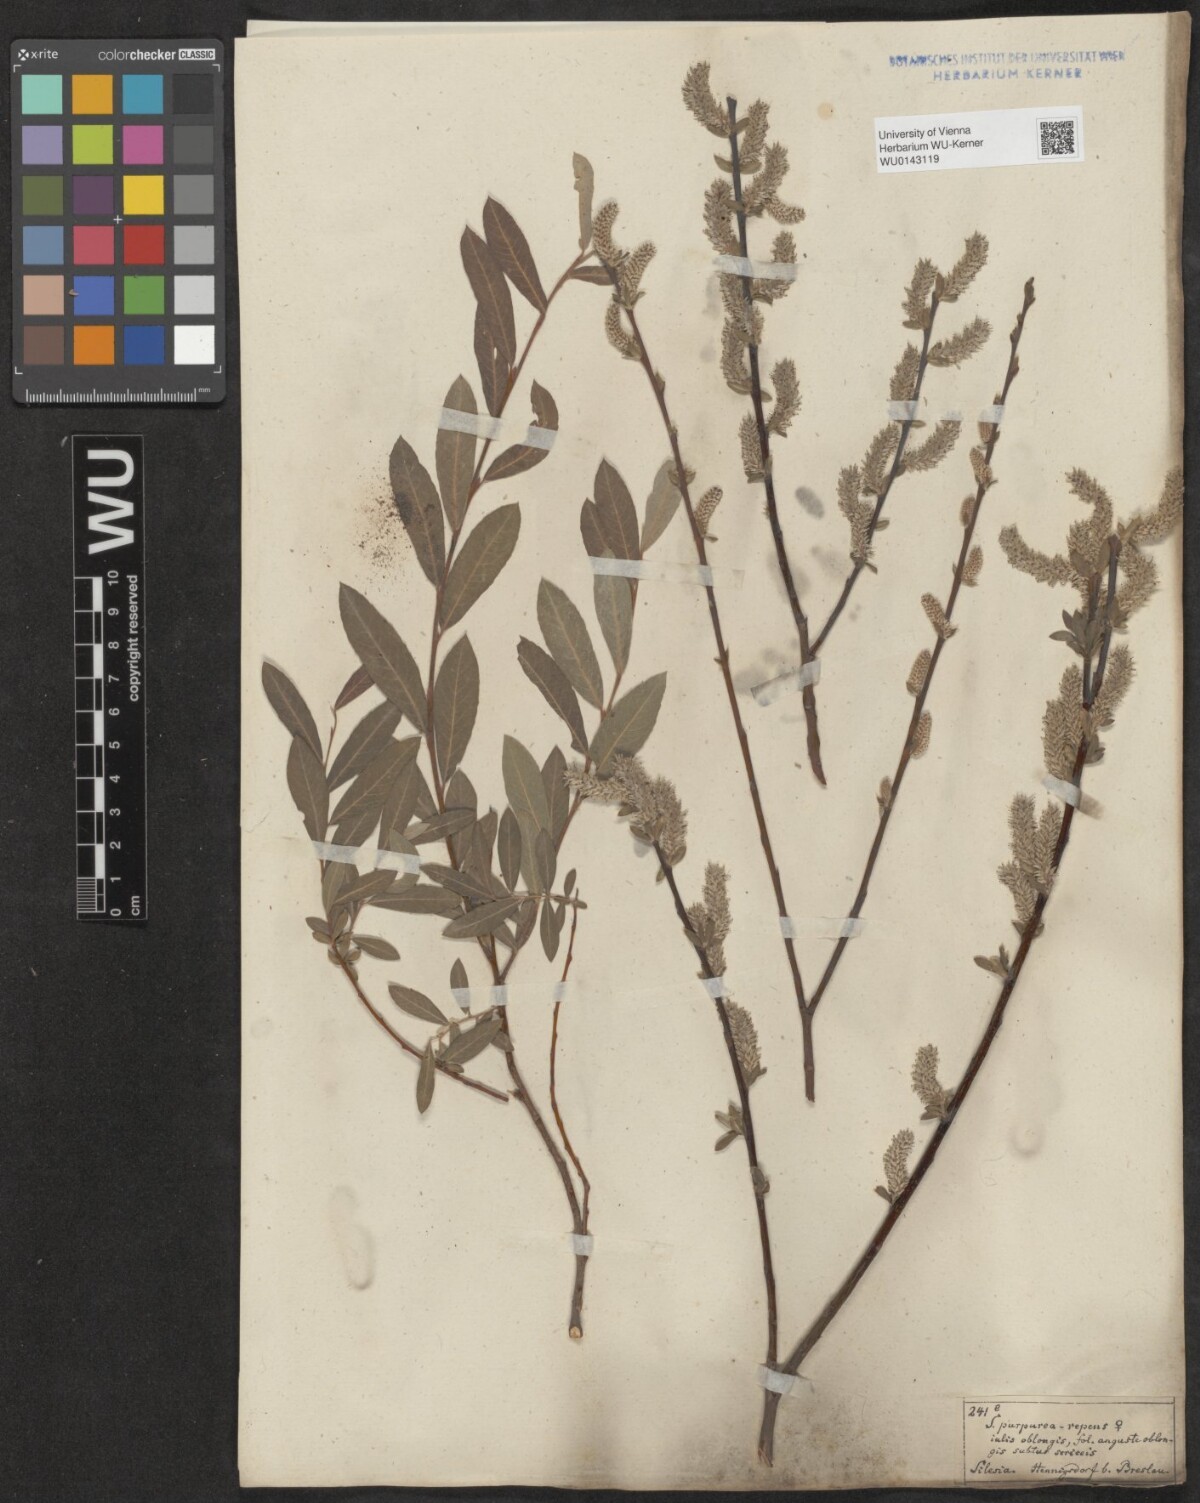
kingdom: Plantae
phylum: Tracheophyta
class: Magnoliopsida
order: Malpighiales
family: Salicaceae
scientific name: Salicaceae
